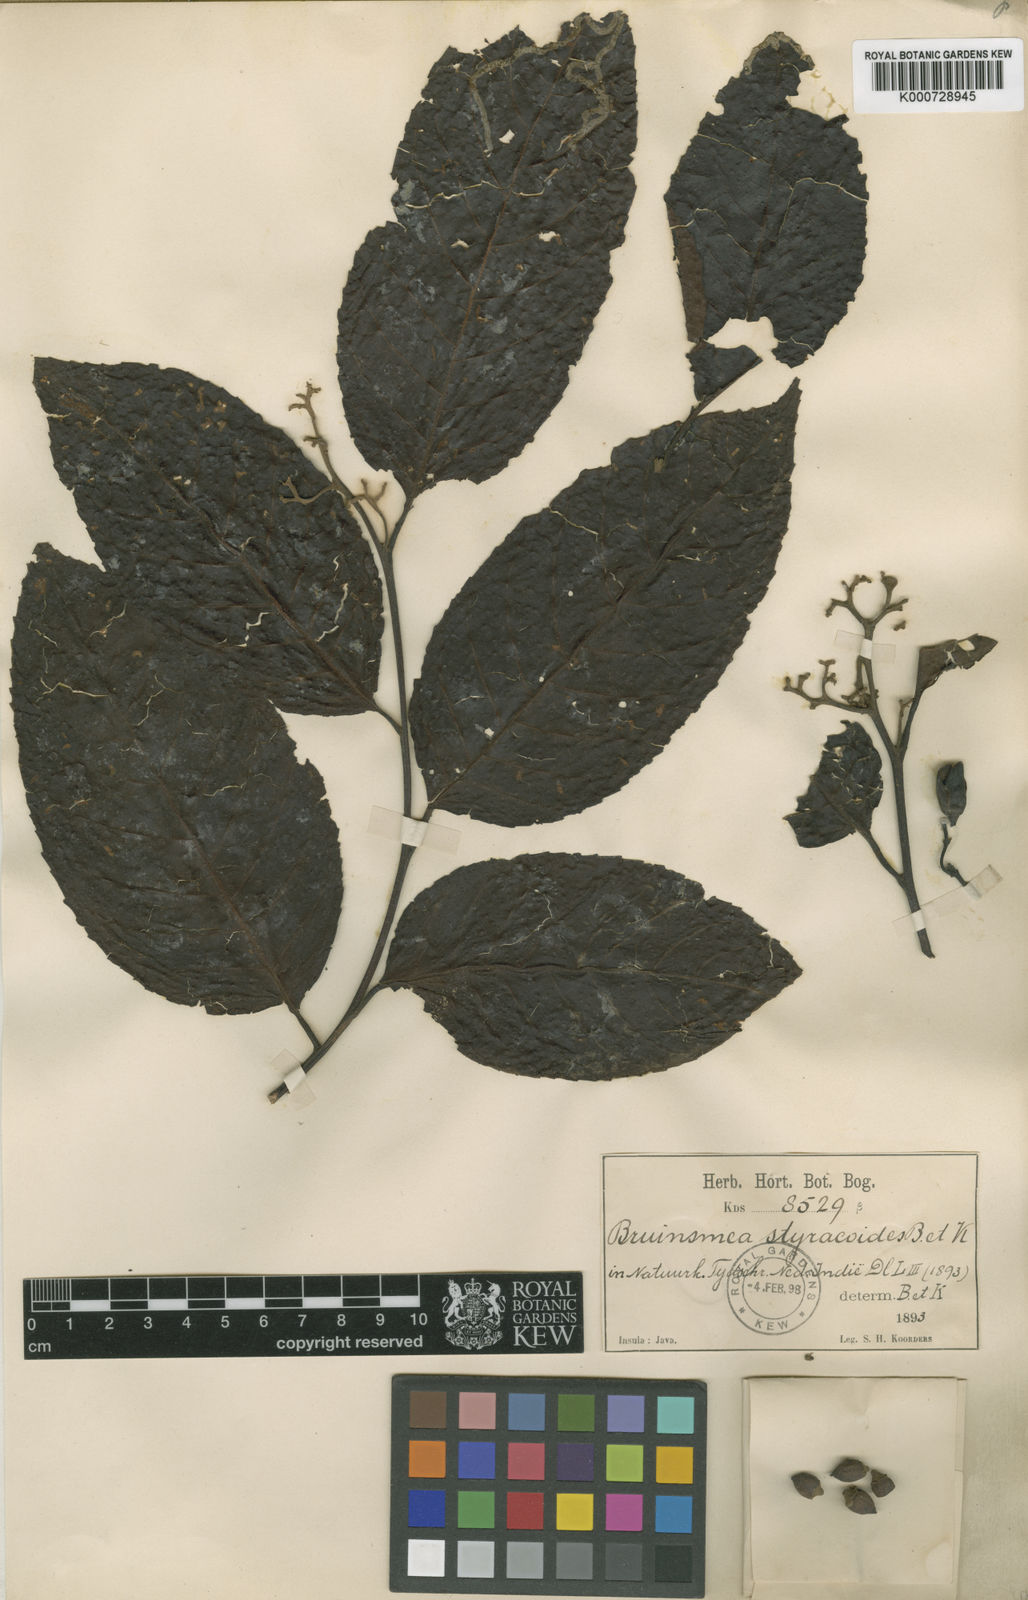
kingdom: Plantae
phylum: Tracheophyta
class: Magnoliopsida
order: Ericales
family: Styracaceae
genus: Bruinsmia
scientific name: Bruinsmia styracoides
